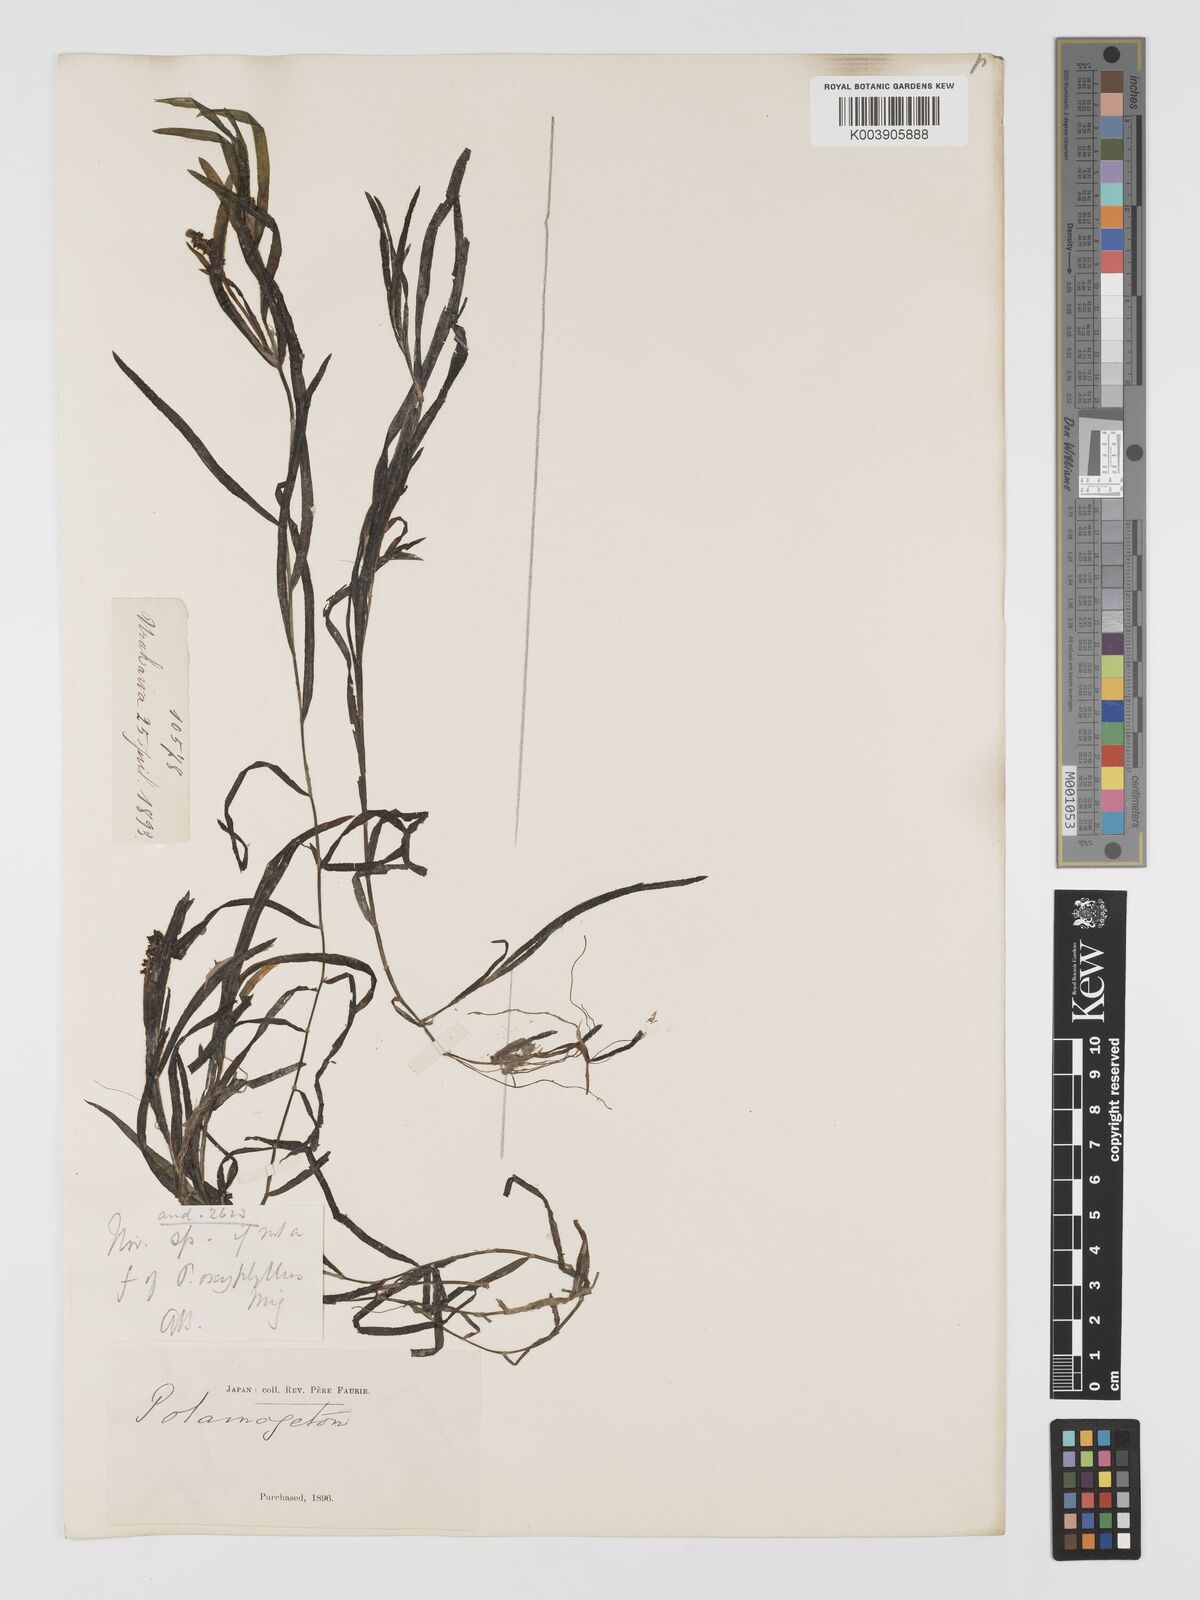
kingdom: Plantae
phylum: Tracheophyta
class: Liliopsida
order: Alismatales
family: Potamogetonaceae
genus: Potamogeton
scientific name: Potamogeton oxyphyllus
